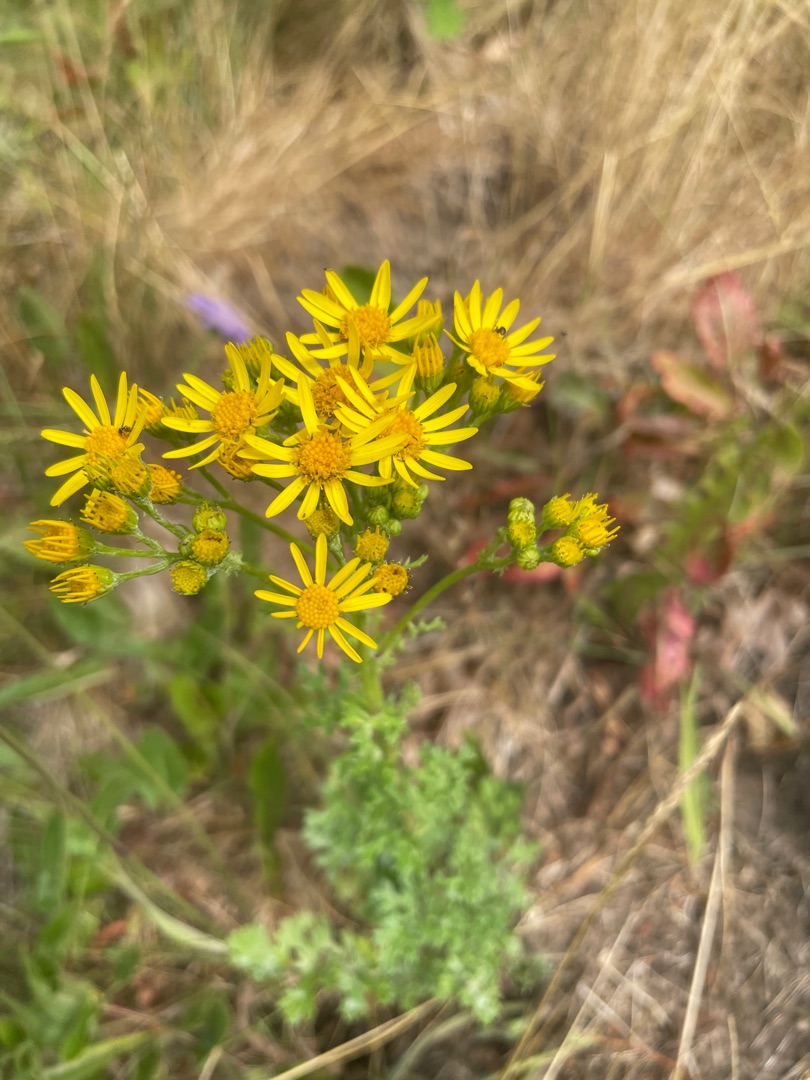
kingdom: Plantae
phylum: Tracheophyta
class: Magnoliopsida
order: Asterales
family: Asteraceae
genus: Jacobaea
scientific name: Jacobaea vulgaris
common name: Eng-brandbæger
